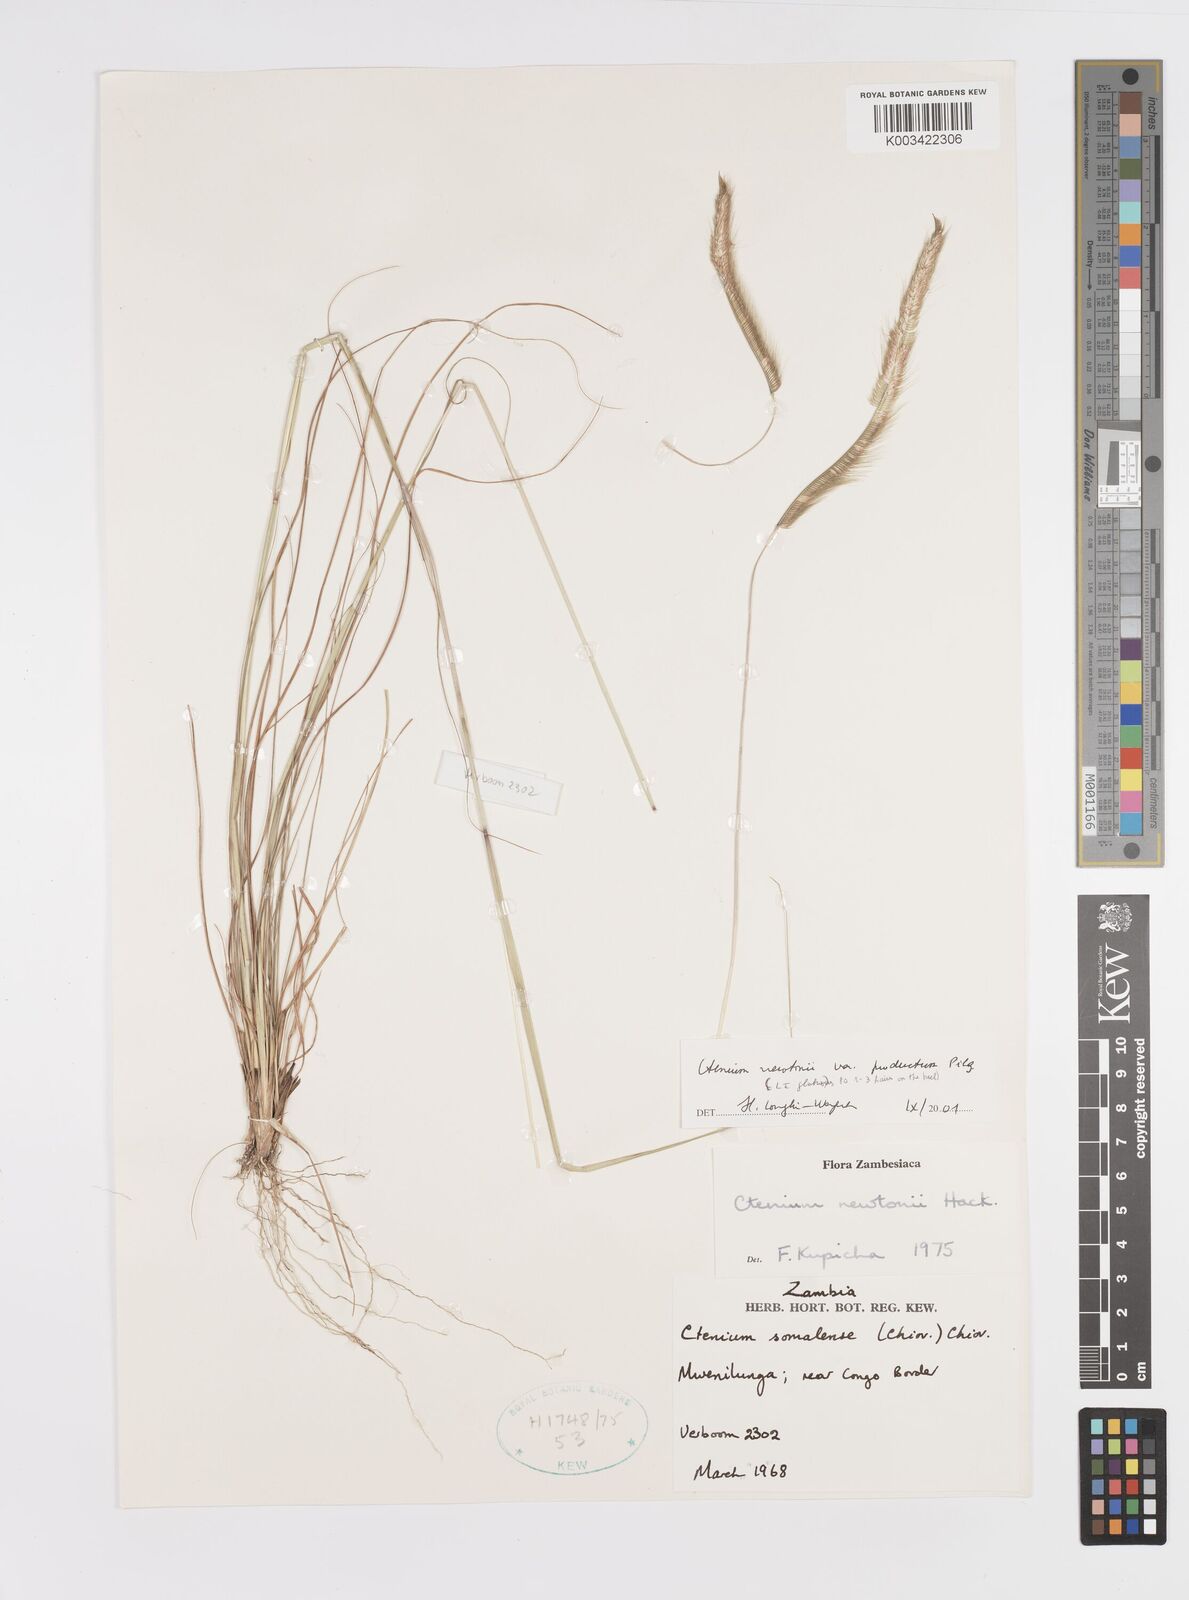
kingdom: Plantae
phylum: Tracheophyta
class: Liliopsida
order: Poales
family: Poaceae
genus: Ctenium
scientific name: Ctenium newtonii
